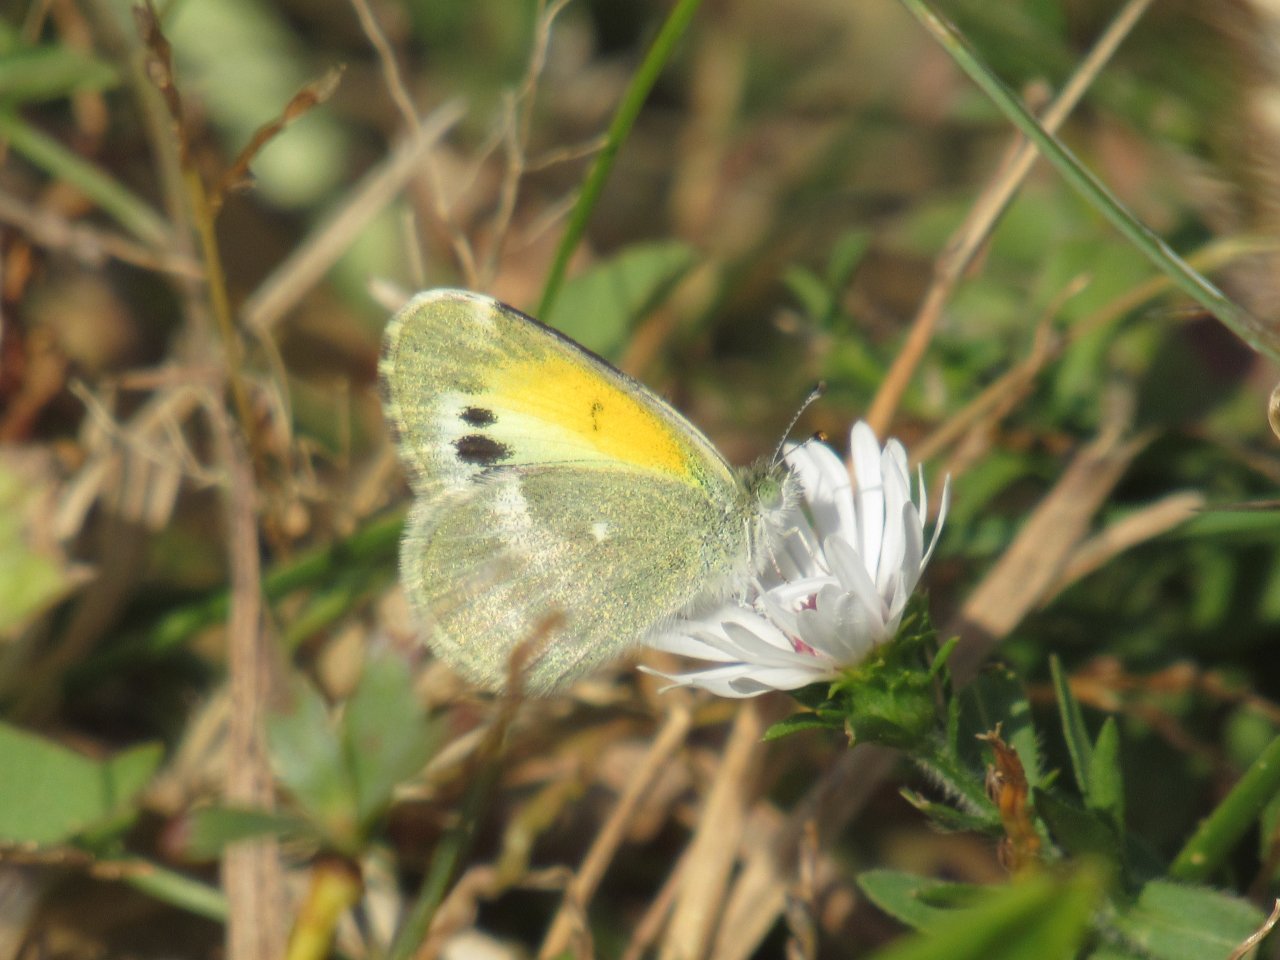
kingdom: Animalia
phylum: Arthropoda
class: Insecta
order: Lepidoptera
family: Pieridae
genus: Nathalis
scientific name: Nathalis iole
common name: Dainty Sulphur
